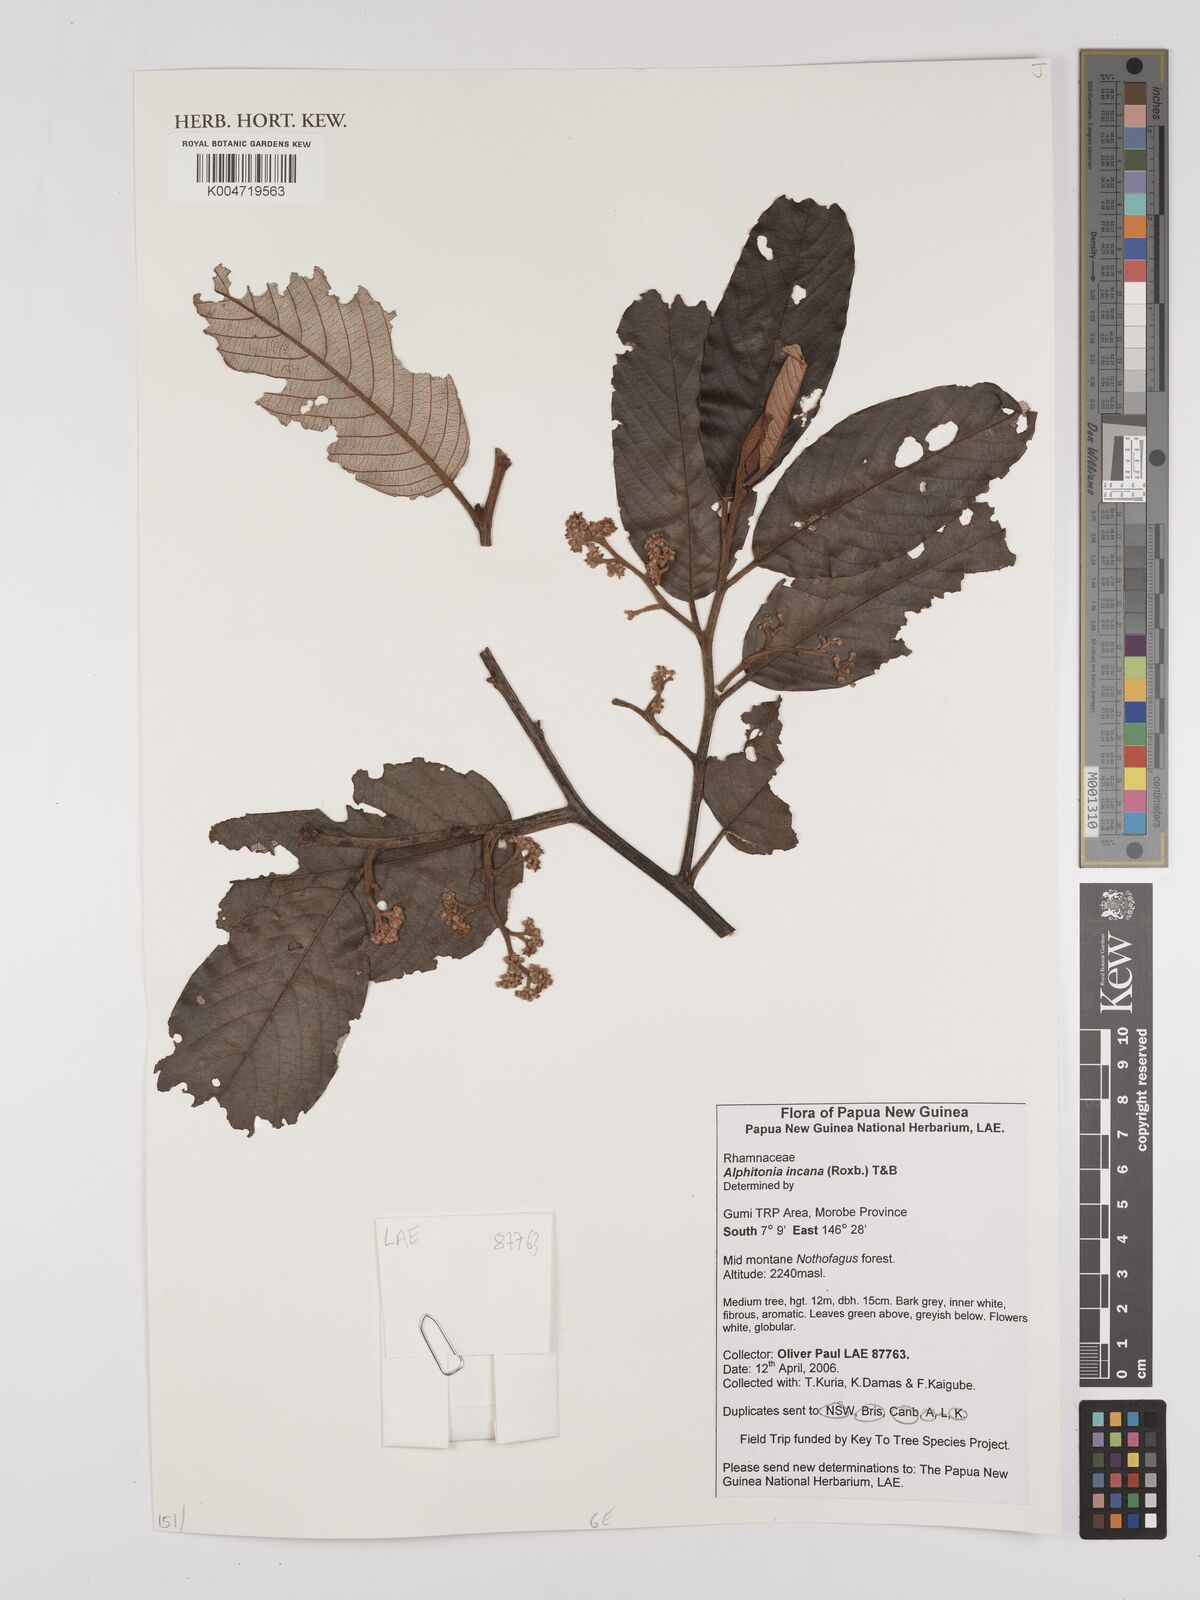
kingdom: Plantae
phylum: Tracheophyta
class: Magnoliopsida
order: Rosales
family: Rhamnaceae
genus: Alphitonia
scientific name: Alphitonia incana
